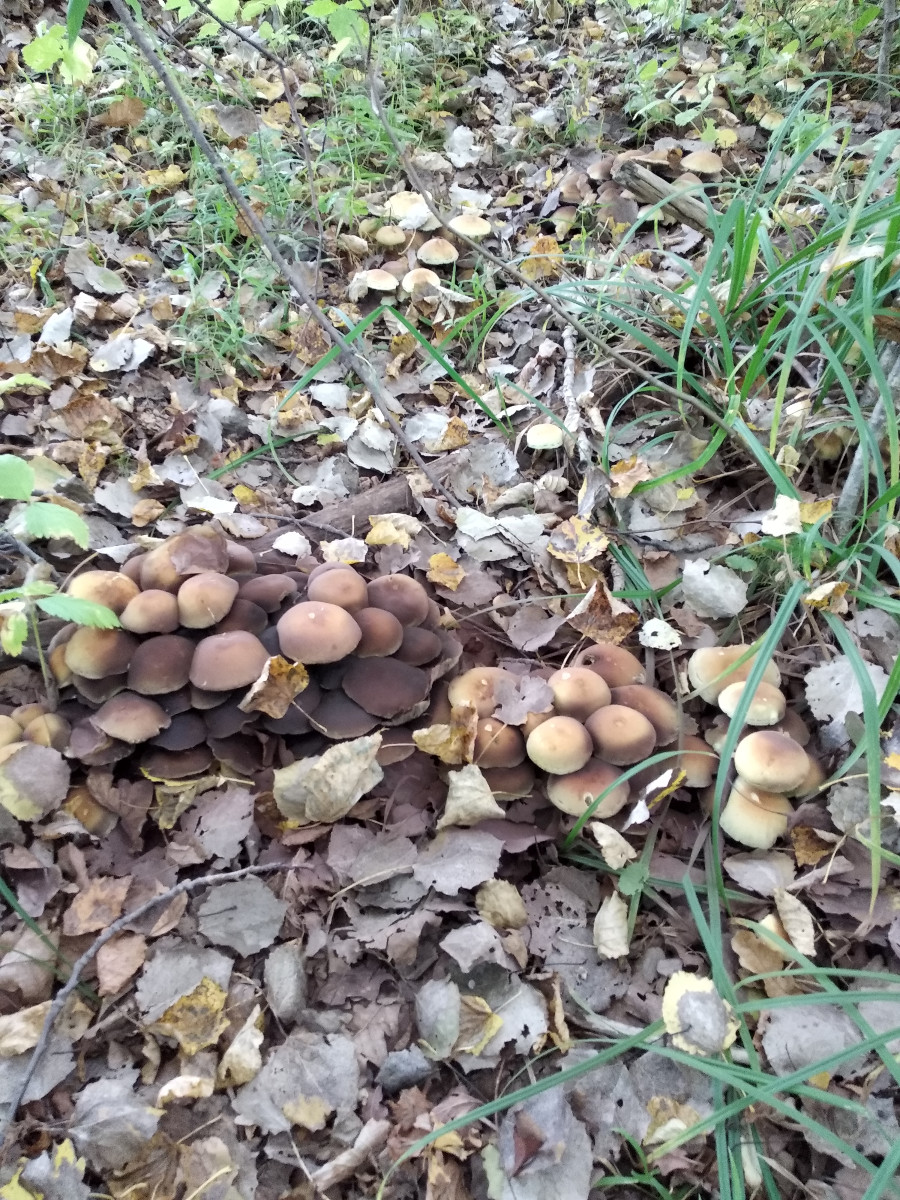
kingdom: Fungi
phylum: Basidiomycota
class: Agaricomycetes
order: Agaricales
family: Strophariaceae
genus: Hypholoma
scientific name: Hypholoma fasciculare
